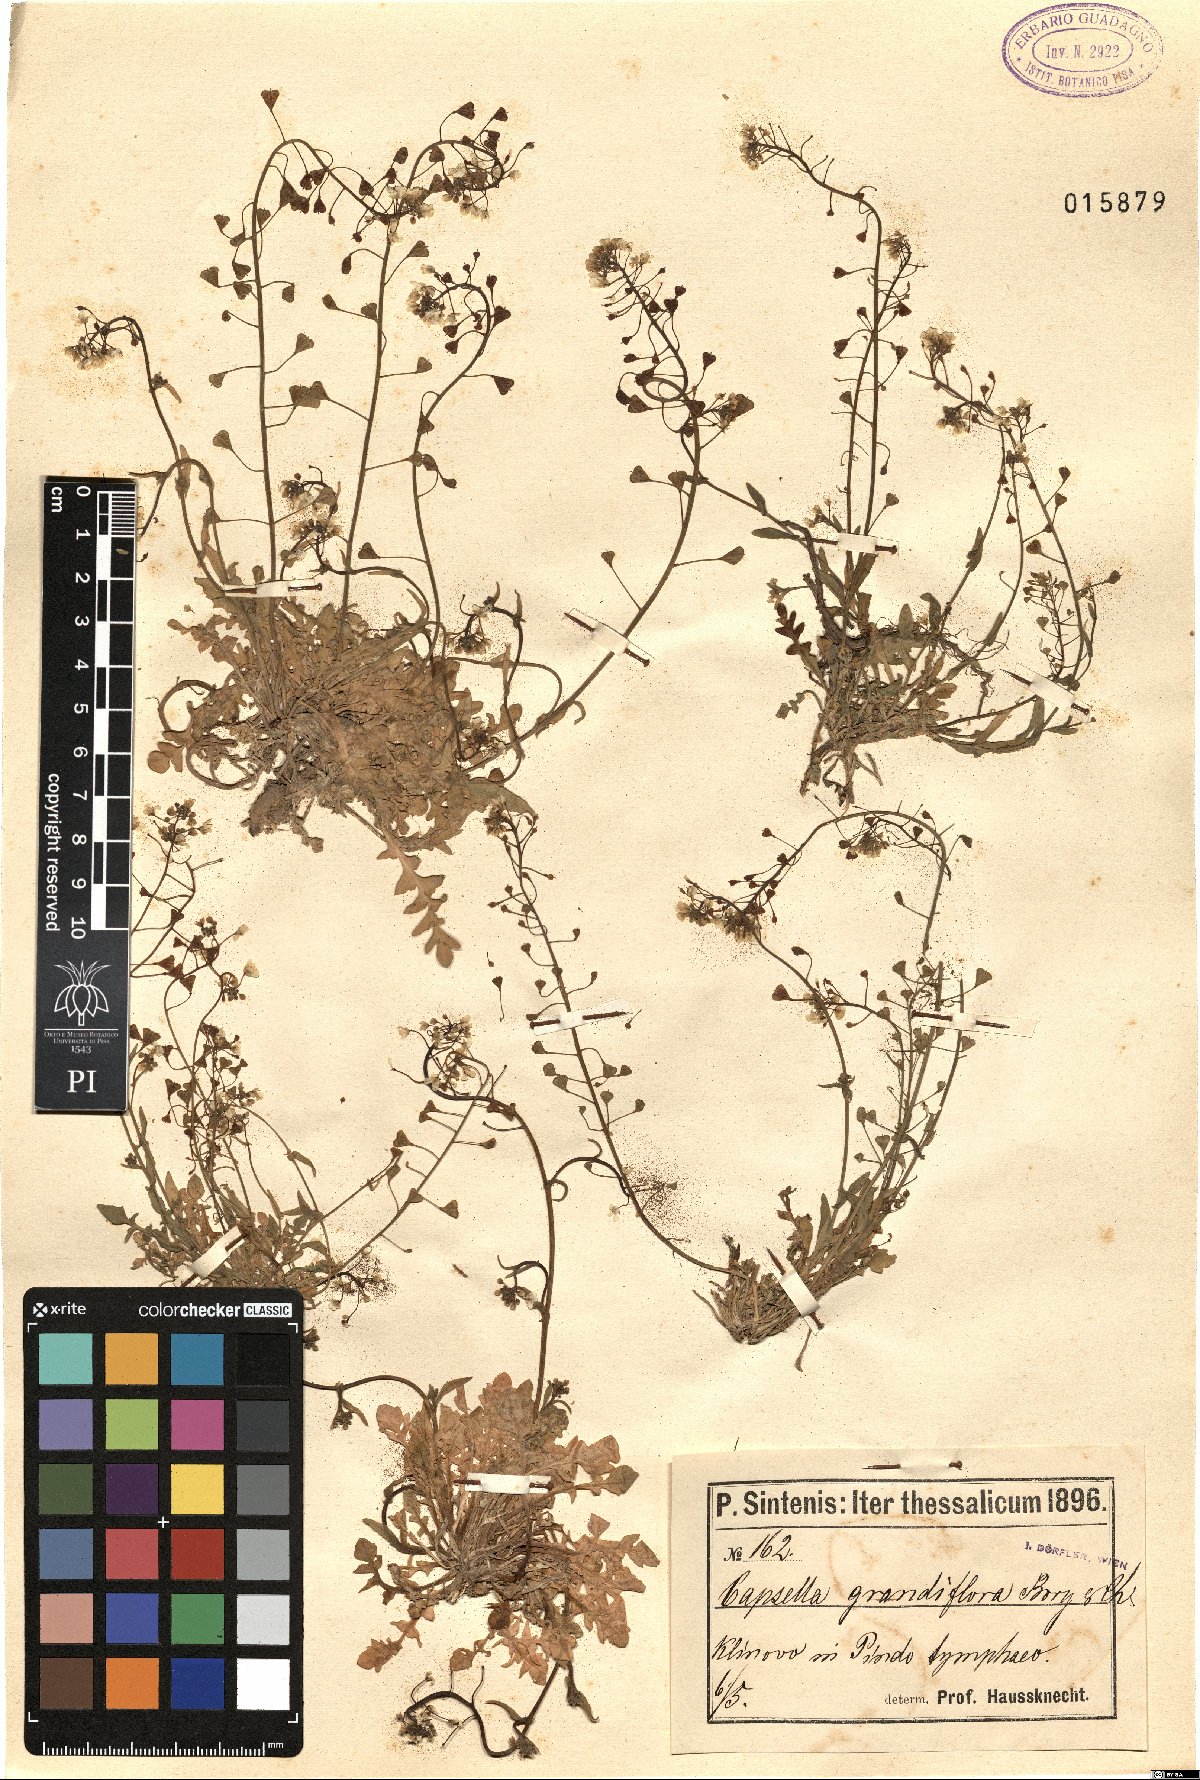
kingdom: Plantae
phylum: Tracheophyta
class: Magnoliopsida
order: Brassicales
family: Brassicaceae
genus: Capsella
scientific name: Capsella grandiflora
